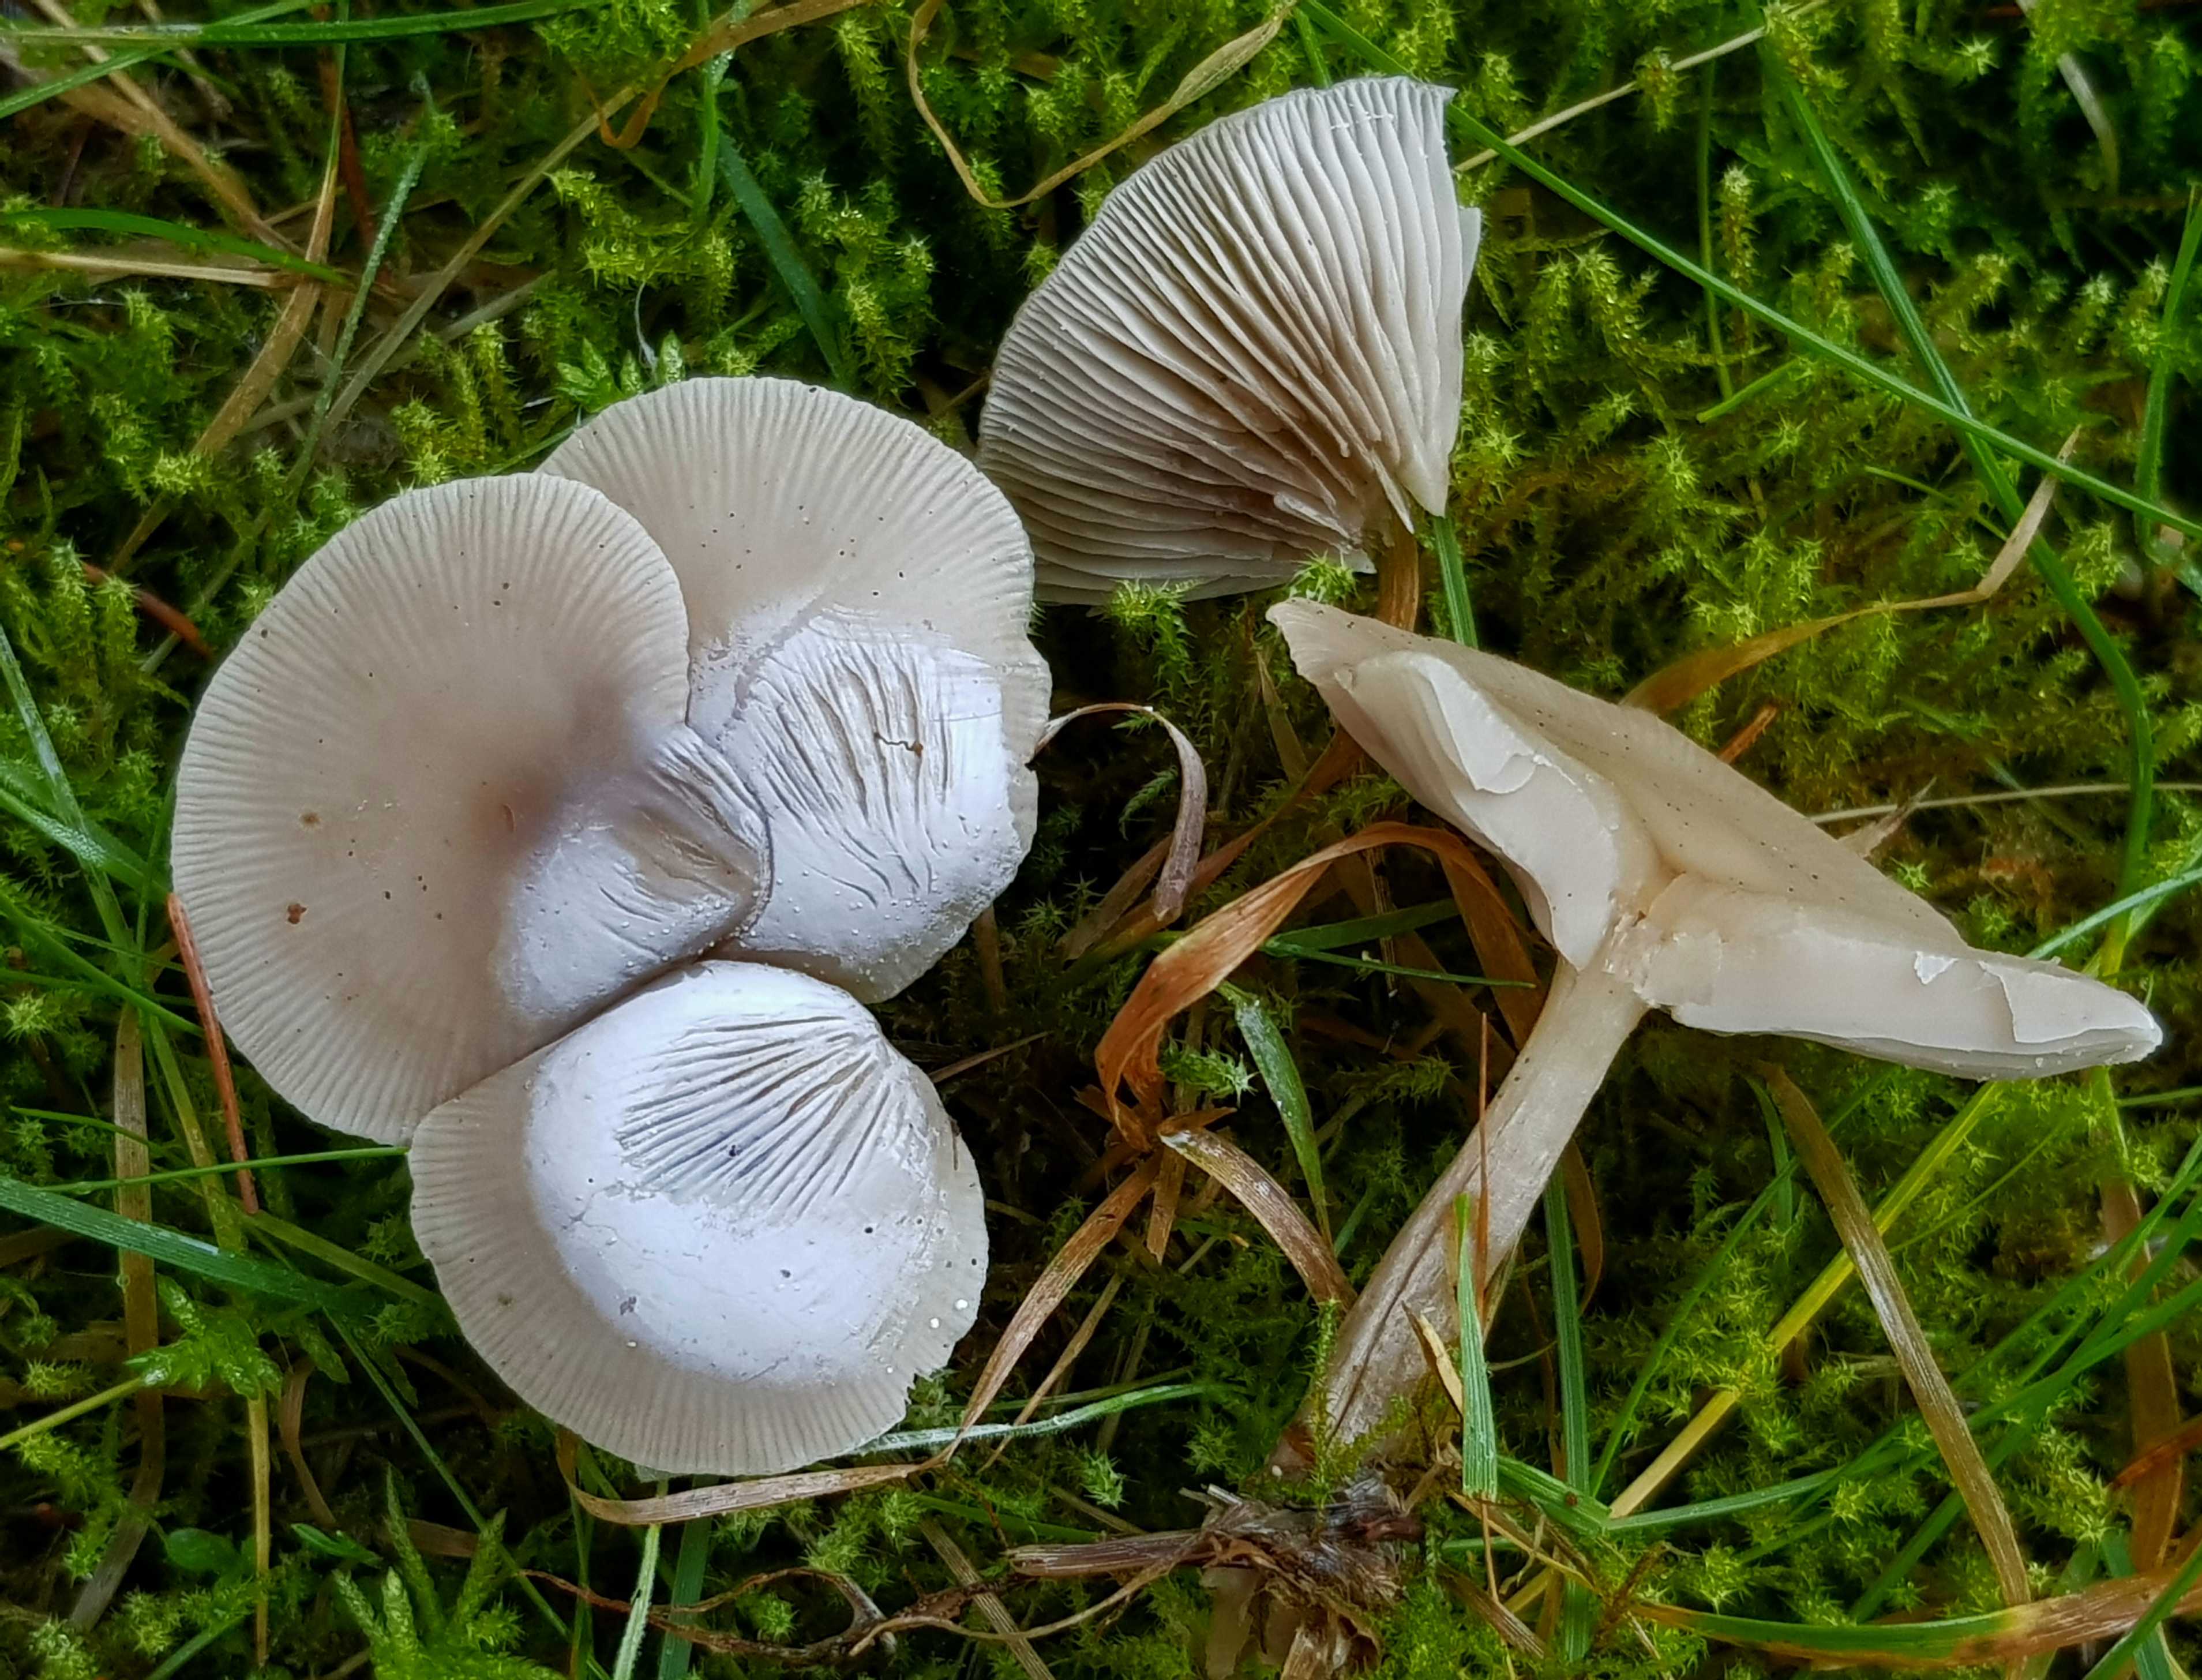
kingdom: Fungi
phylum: Basidiomycota
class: Agaricomycetes
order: Agaricales
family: Tricholomataceae
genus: Clitocybe
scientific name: Clitocybe
